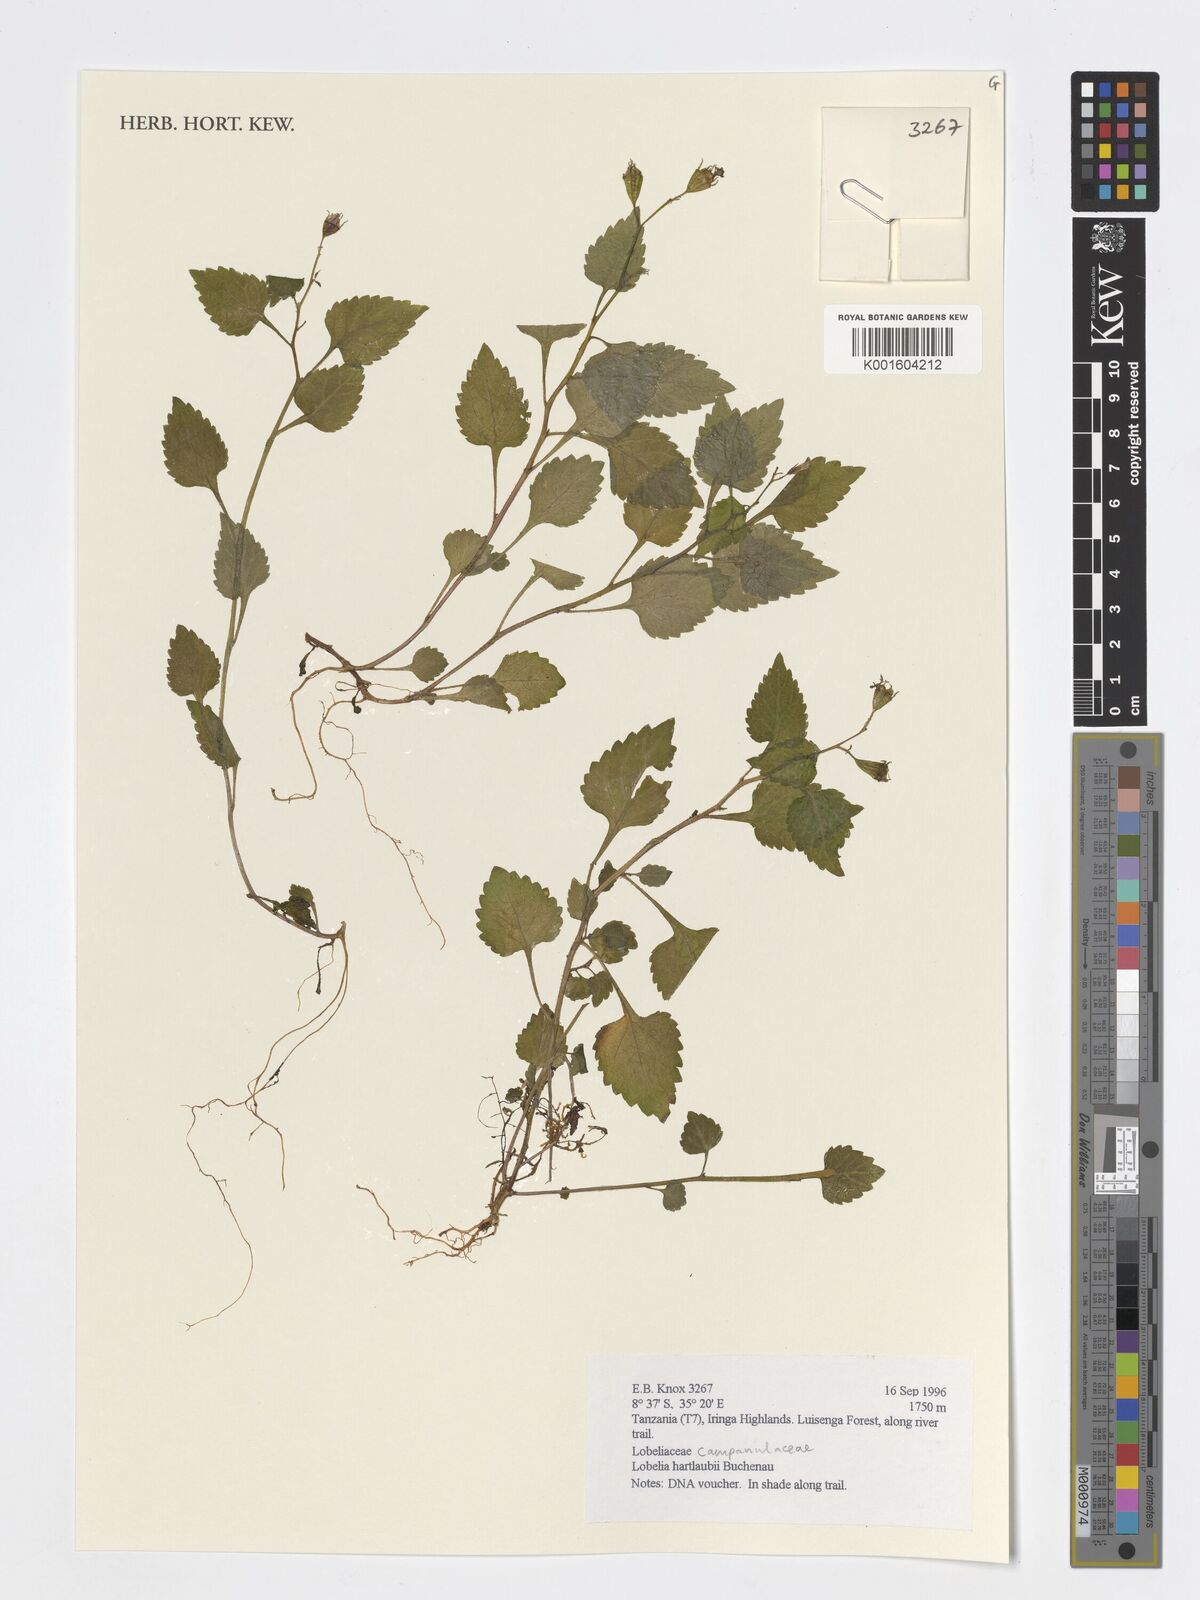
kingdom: Plantae
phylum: Tracheophyta
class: Magnoliopsida
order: Asterales
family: Campanulaceae
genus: Lobelia
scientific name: Lobelia hartlaubii
